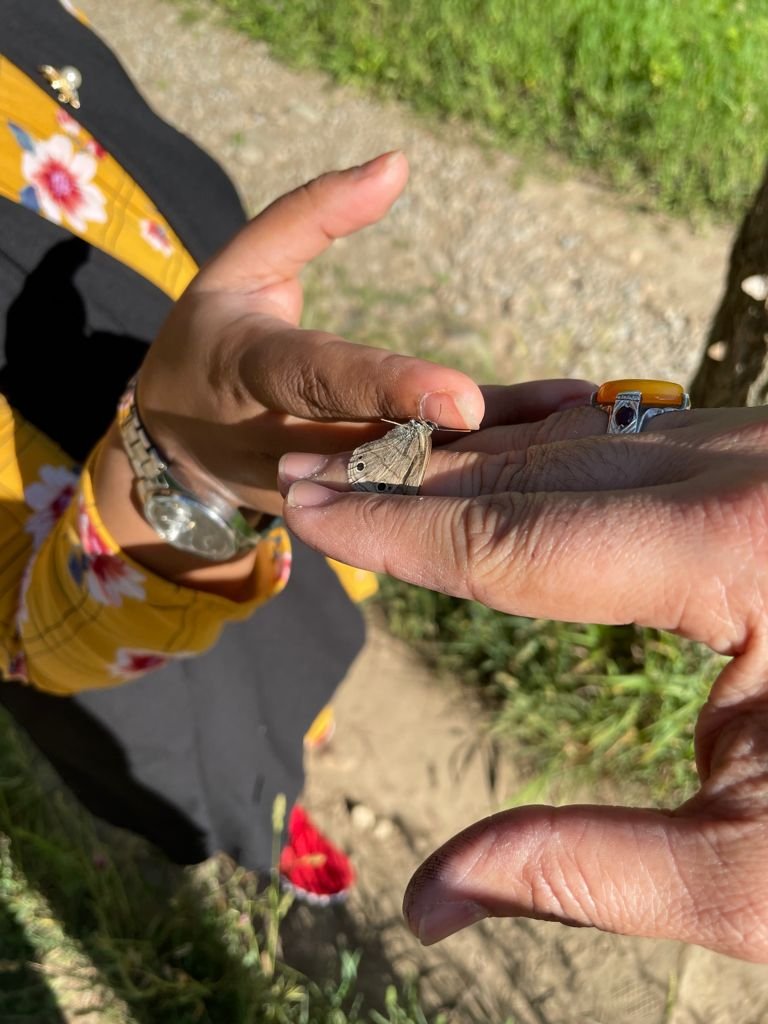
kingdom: Animalia
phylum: Arthropoda
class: Insecta
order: Lepidoptera
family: Nymphalidae
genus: Euptychia
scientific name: Euptychia cymela
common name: Little Wood Satyr
